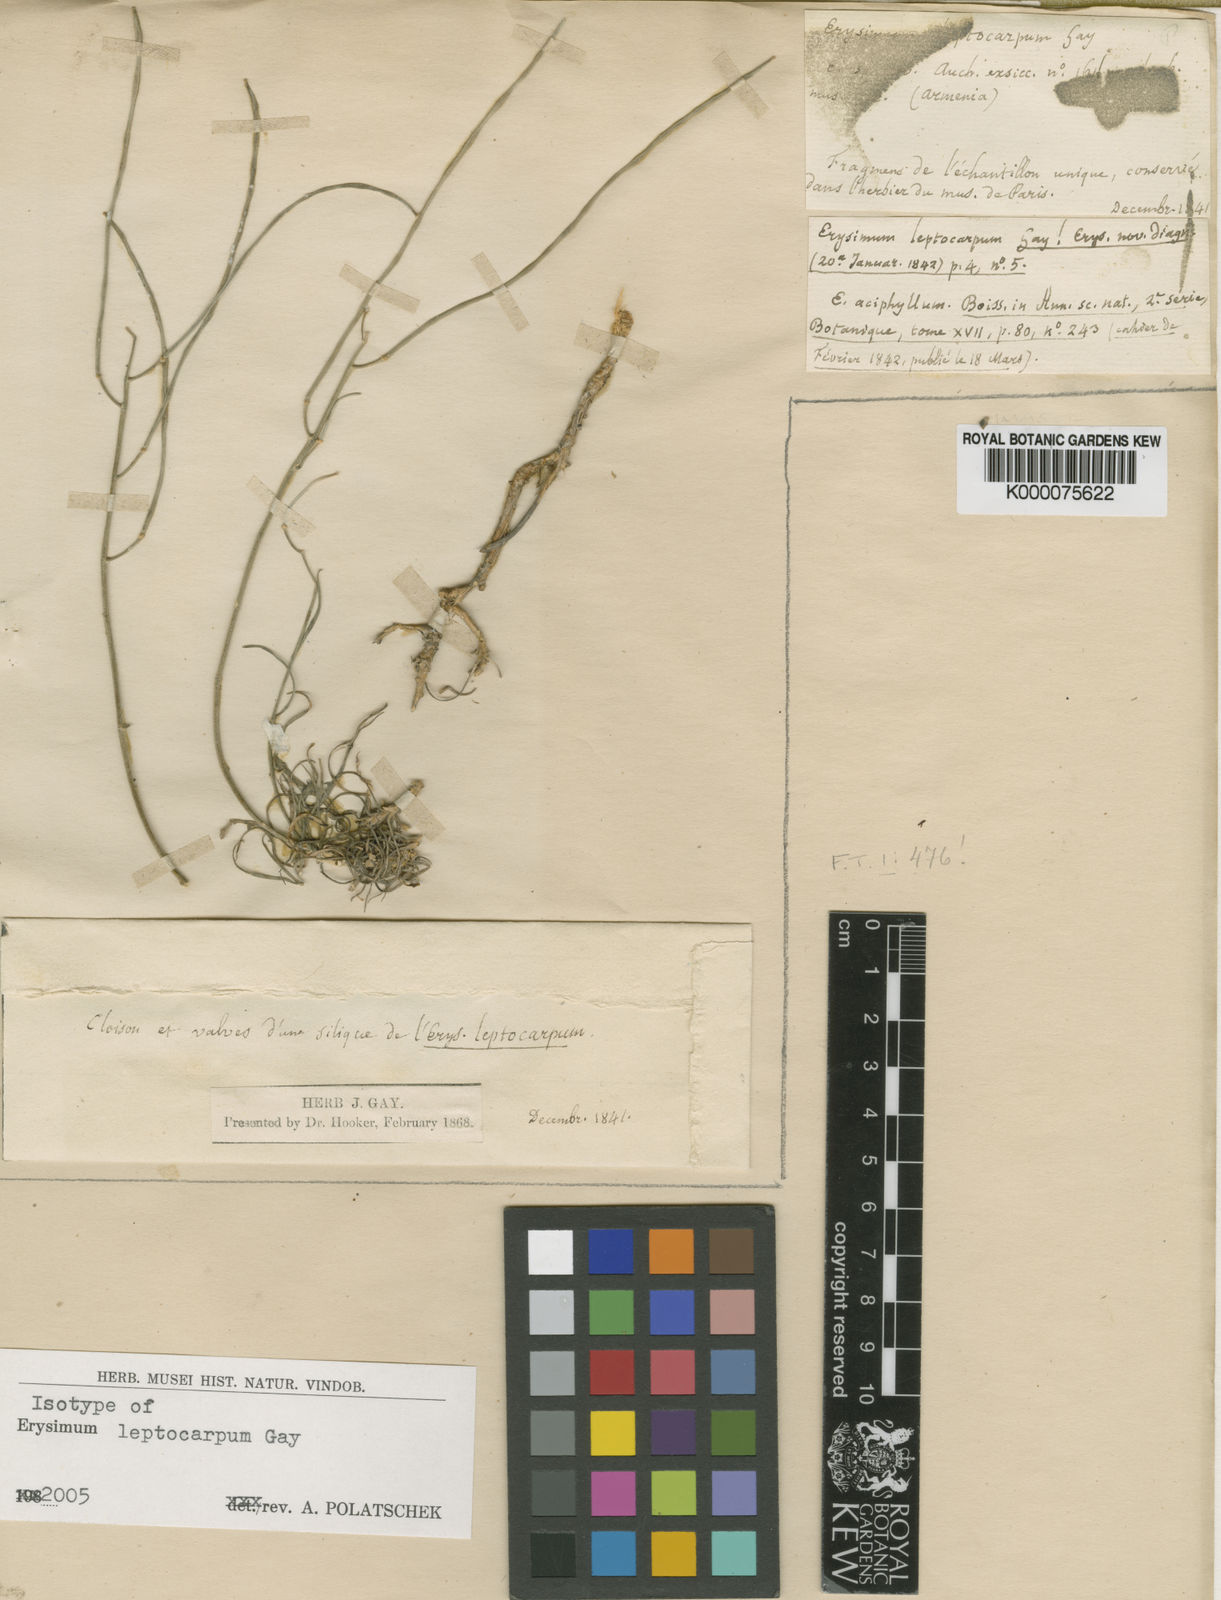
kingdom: Plantae
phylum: Tracheophyta
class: Magnoliopsida
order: Brassicales
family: Brassicaceae
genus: Erysimum
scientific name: Erysimum leptocarpum
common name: Thin-fruited tracle mustard
